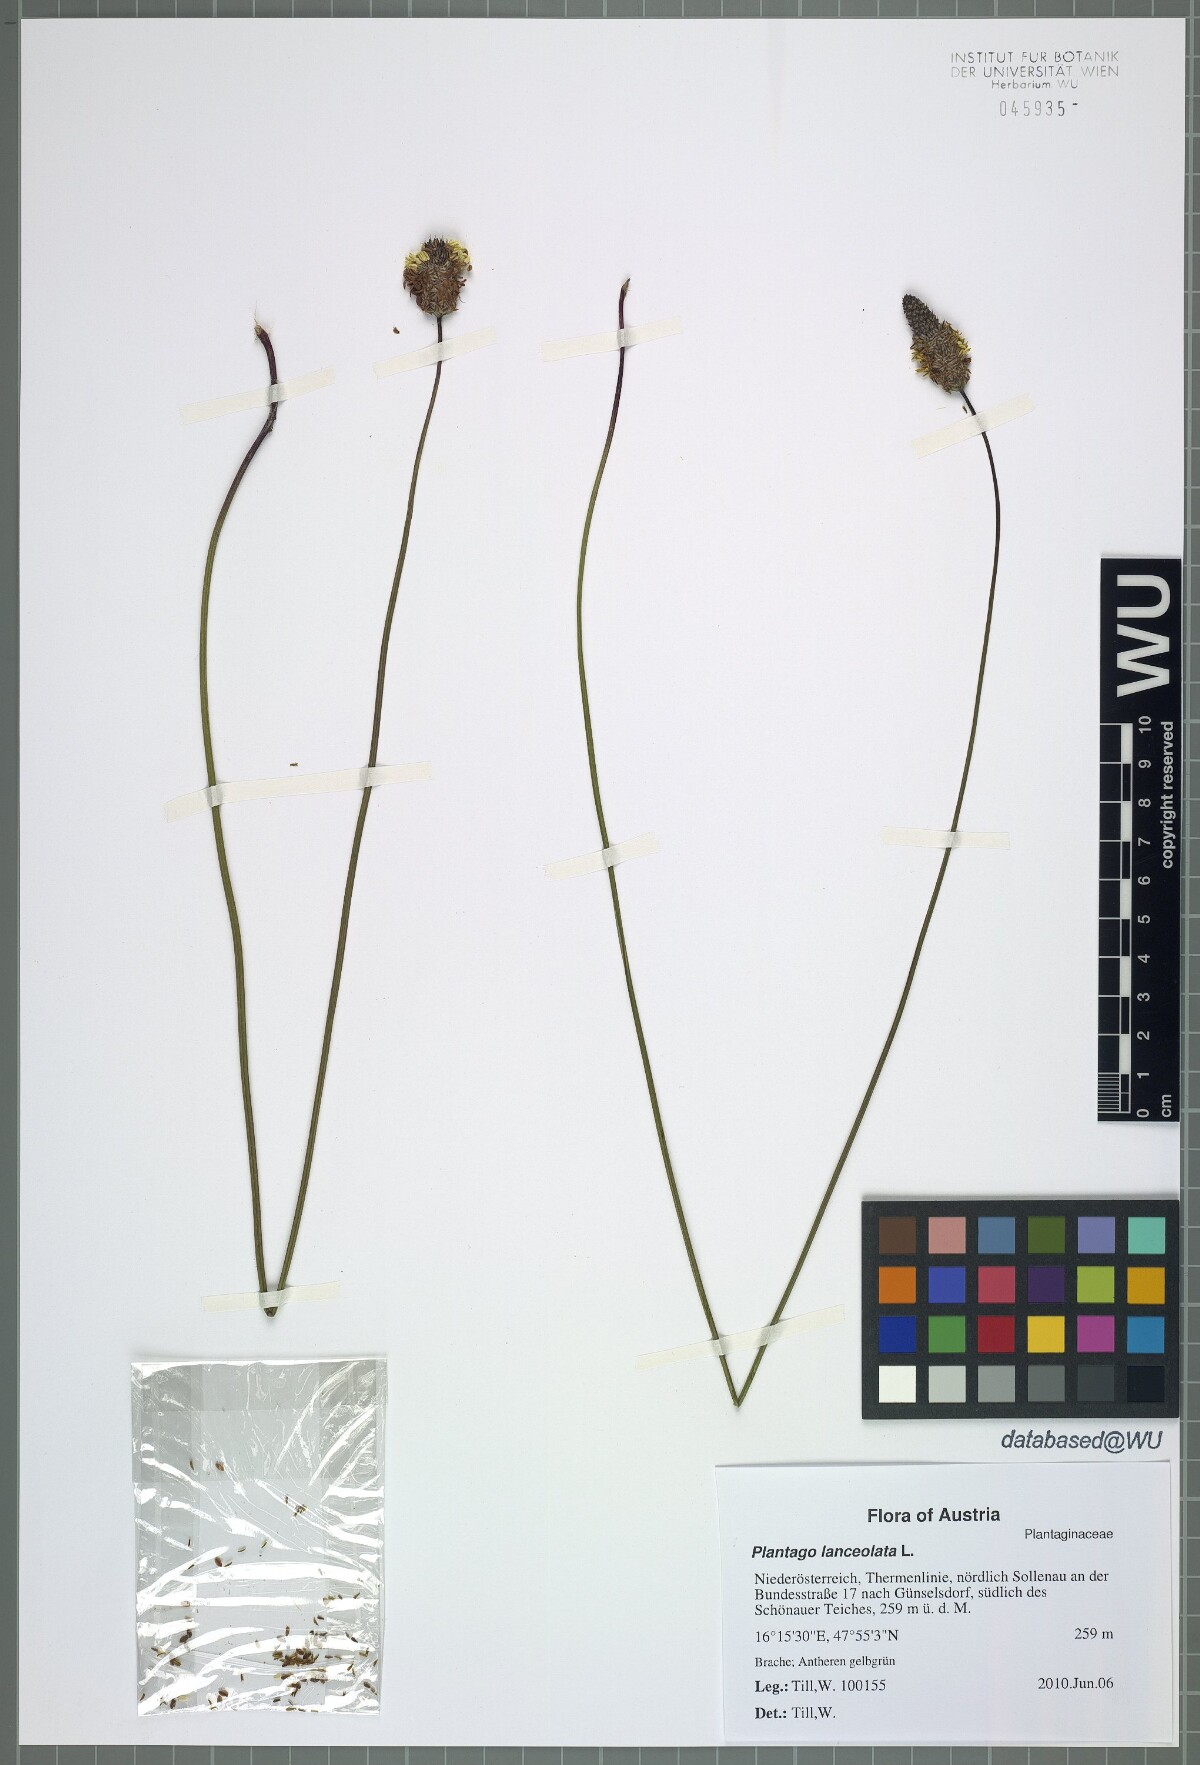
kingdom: Plantae
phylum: Tracheophyta
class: Magnoliopsida
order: Lamiales
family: Plantaginaceae
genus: Plantago
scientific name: Plantago lanceolata
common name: Ribwort plantain
